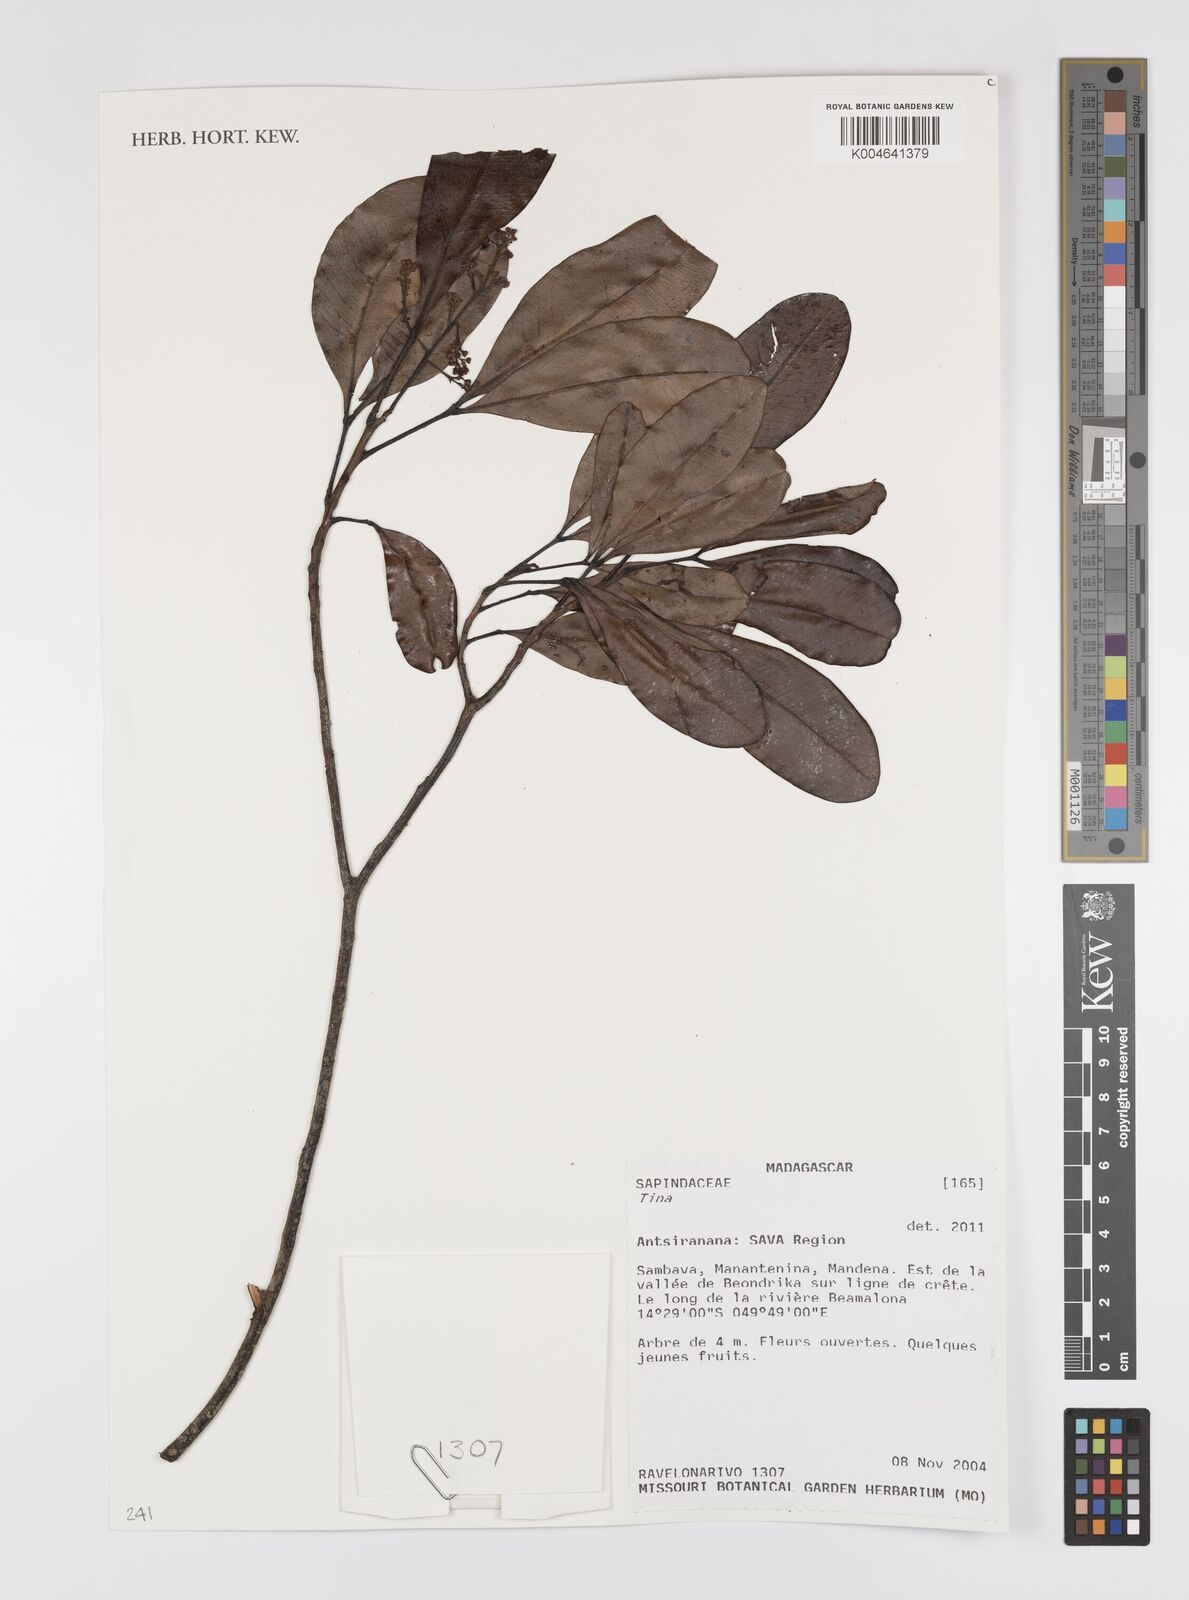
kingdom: Plantae
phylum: Tracheophyta
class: Magnoliopsida
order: Sapindales
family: Sapindaceae
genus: Tina
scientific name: Tina
